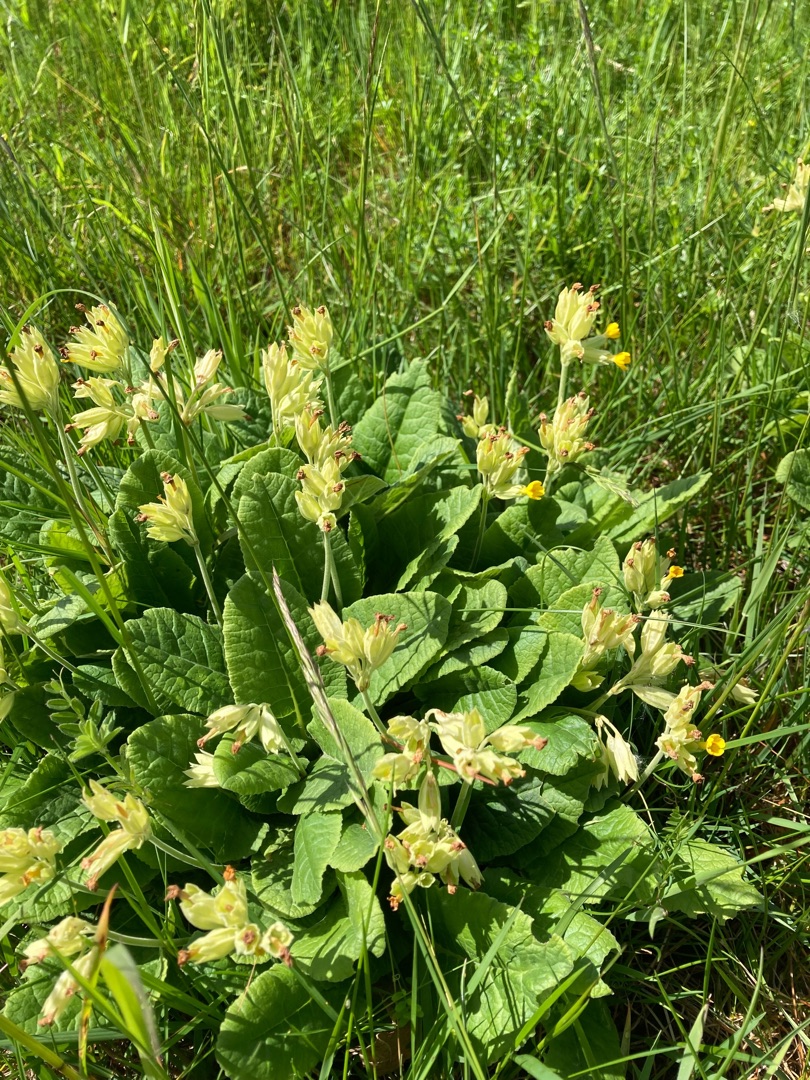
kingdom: Plantae
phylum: Tracheophyta
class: Magnoliopsida
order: Ericales
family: Primulaceae
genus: Primula
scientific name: Primula veris
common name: Hulkravet kodriver
